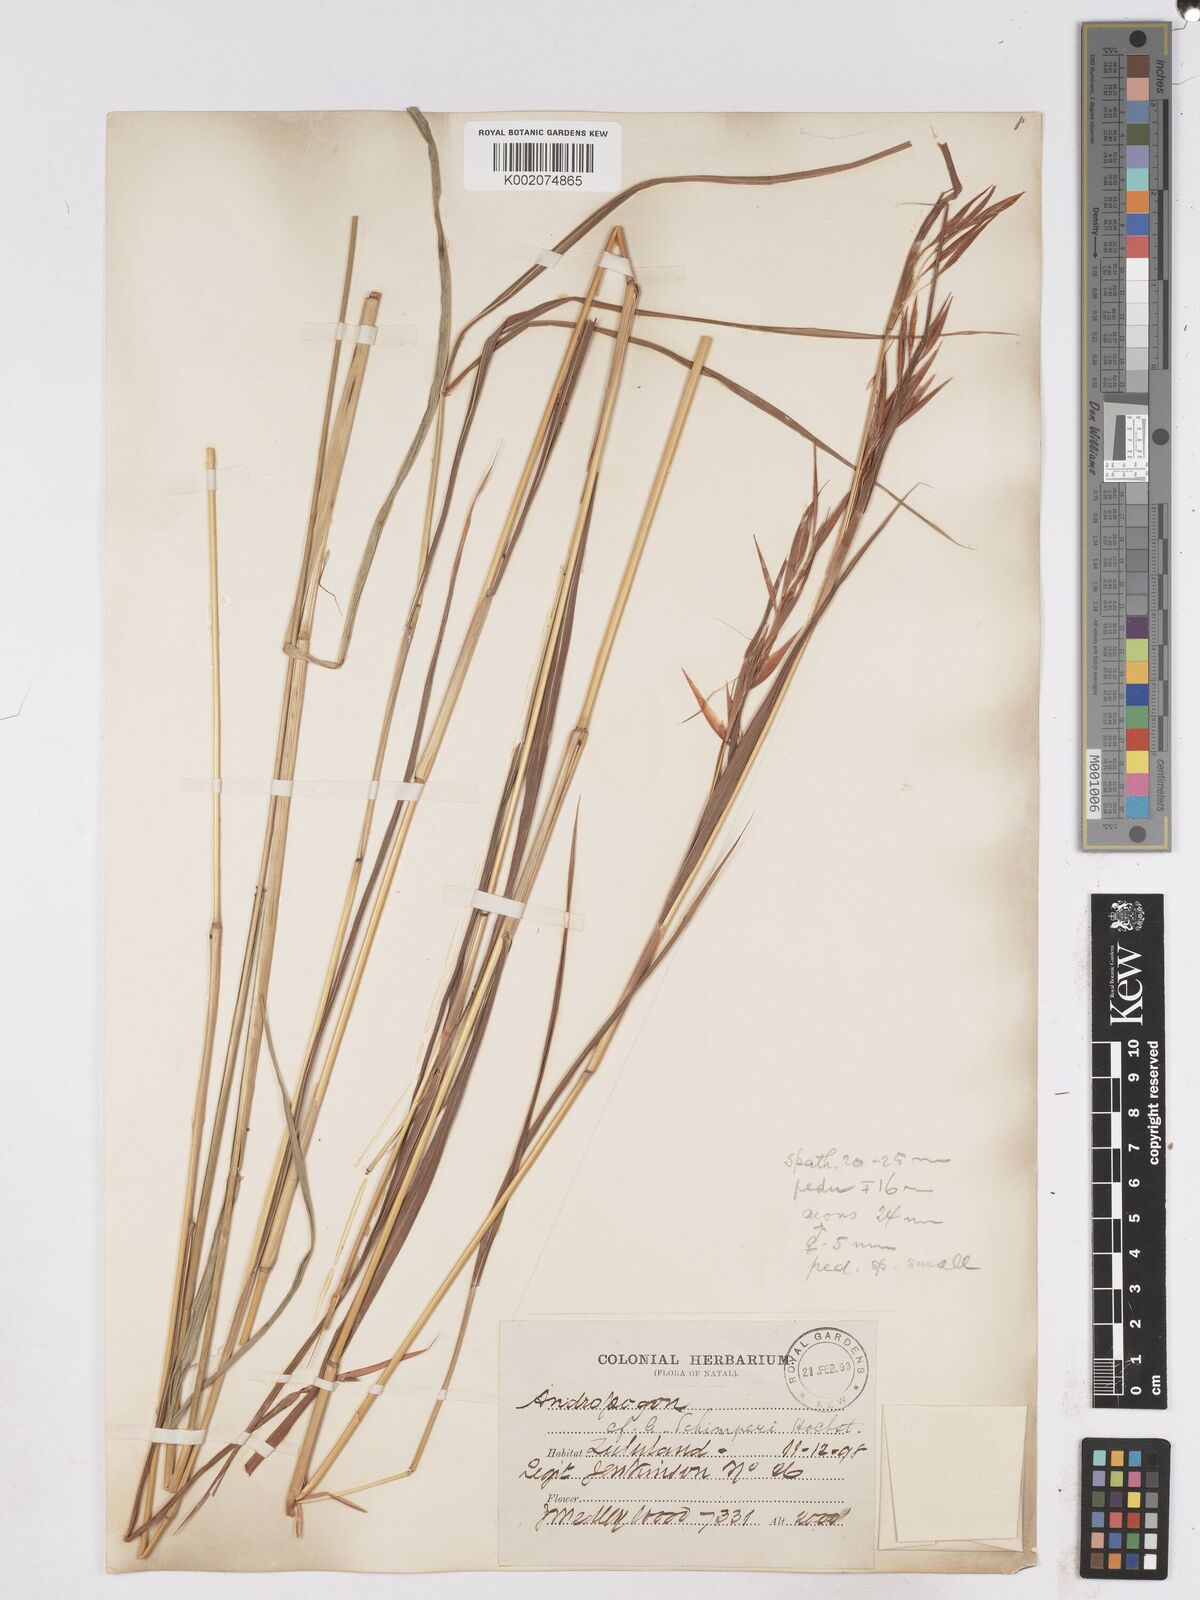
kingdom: Plantae
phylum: Tracheophyta
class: Liliopsida
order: Poales
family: Poaceae
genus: Hyparrhenia
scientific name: Hyparrhenia schimperi
